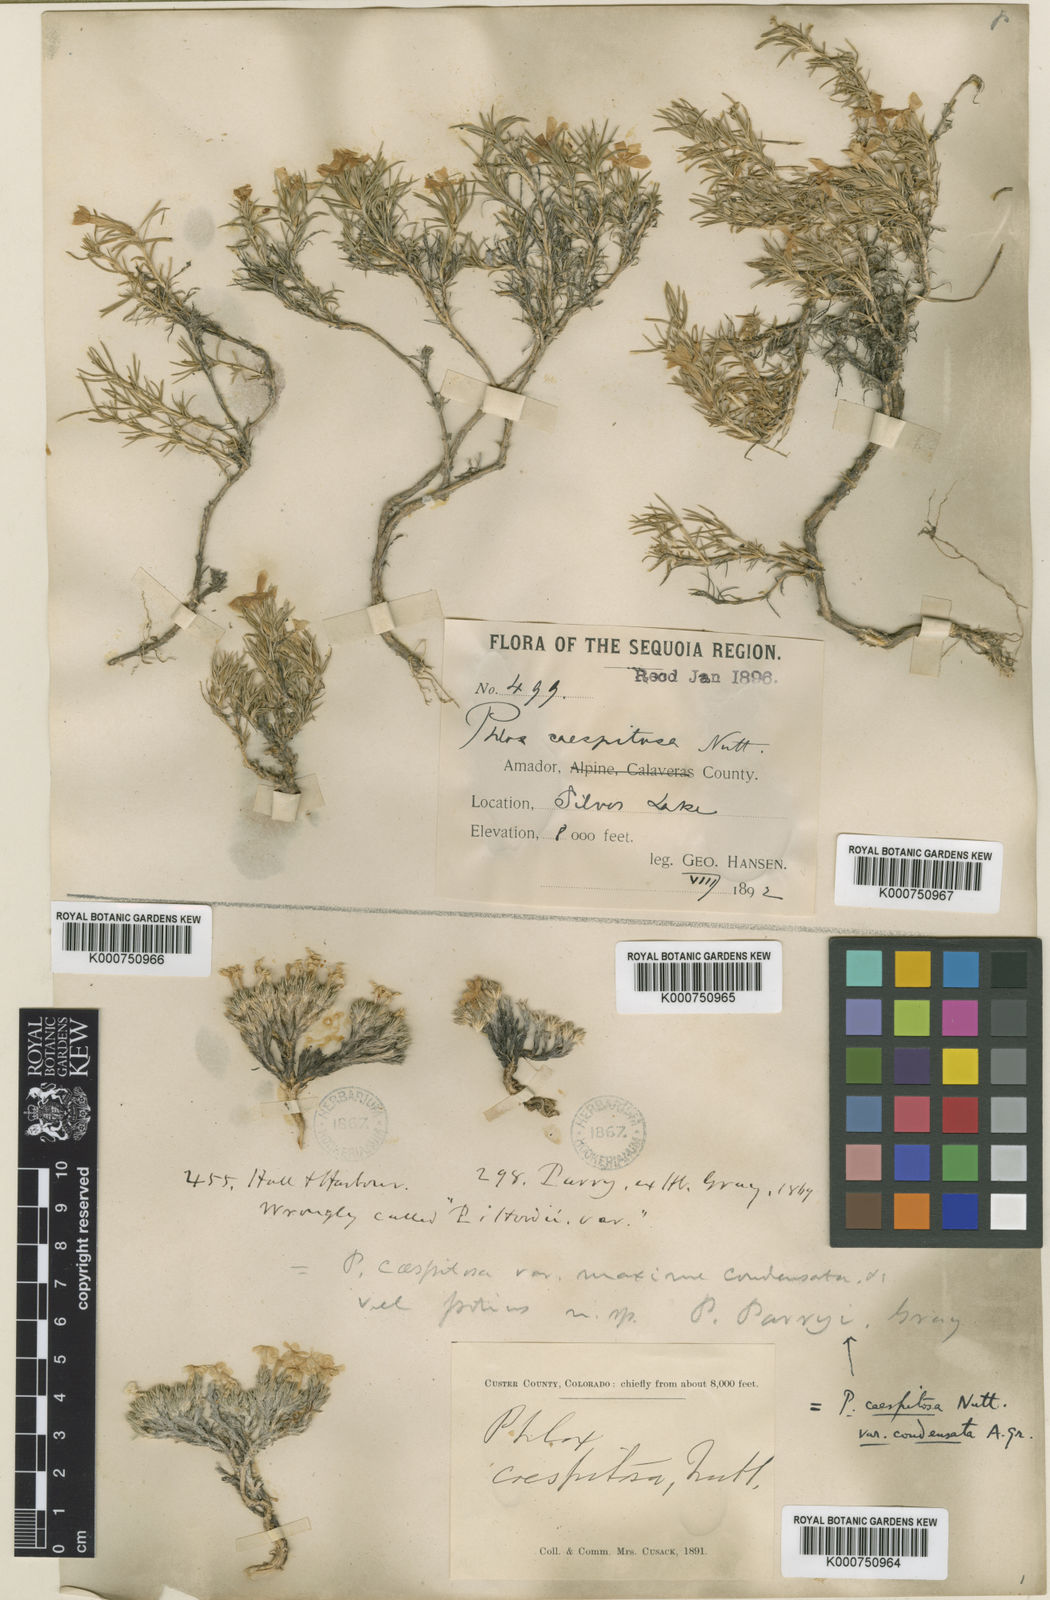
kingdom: Plantae
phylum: Tracheophyta
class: Magnoliopsida
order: Ericales
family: Polemoniaceae
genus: Phlox
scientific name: Phlox
